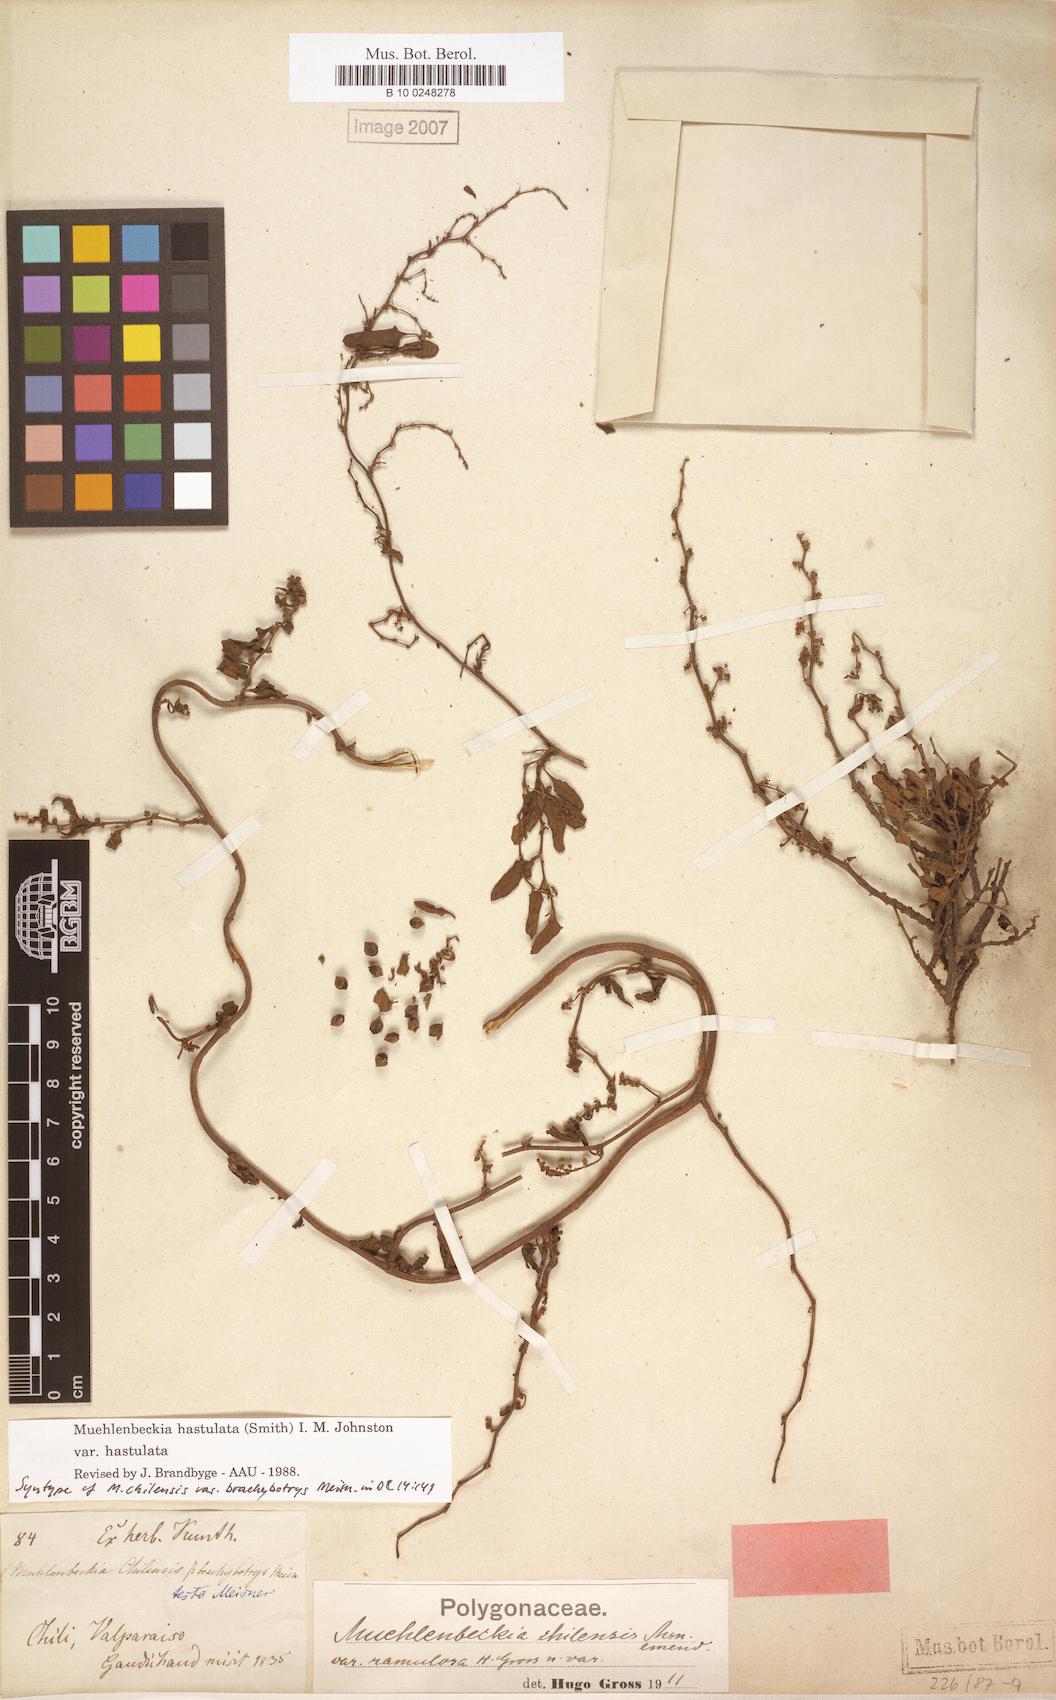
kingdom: Plantae
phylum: Tracheophyta
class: Magnoliopsida
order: Caryophyllales
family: Polygonaceae
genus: Muehlenbeckia
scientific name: Muehlenbeckia hastulata
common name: Wirevine
